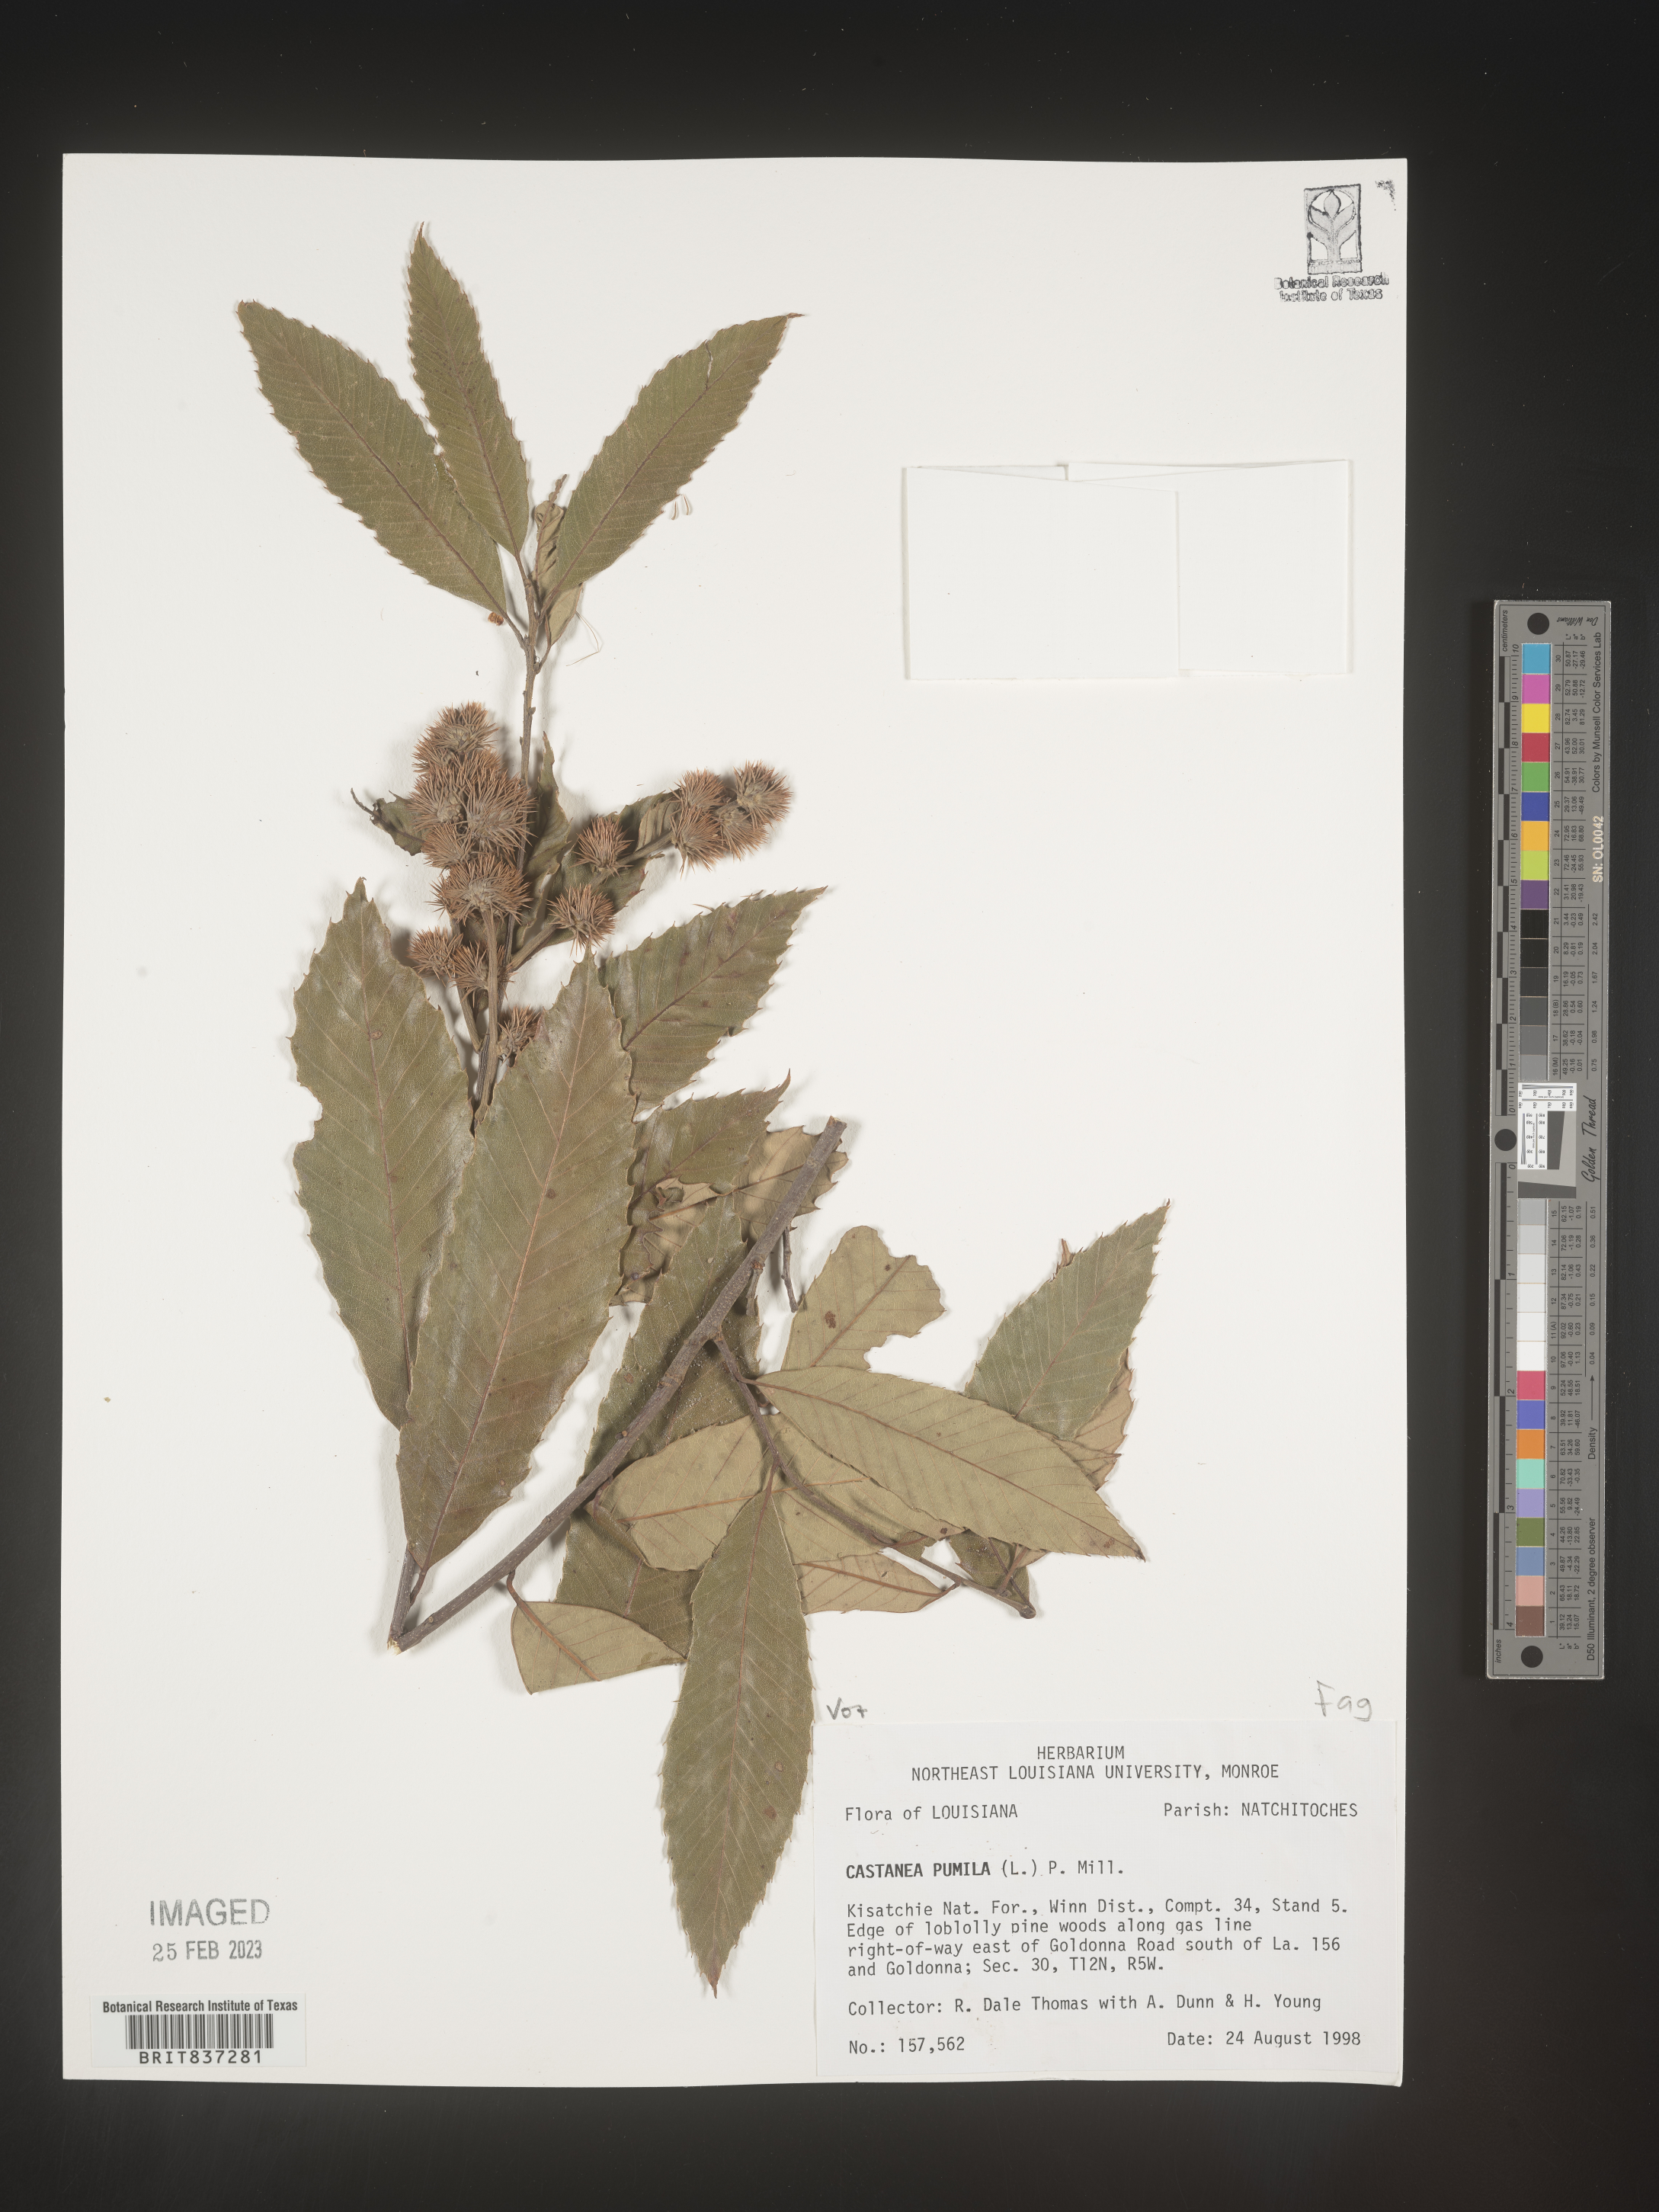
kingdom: Plantae
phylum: Tracheophyta
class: Magnoliopsida
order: Fagales
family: Fagaceae
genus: Castanea
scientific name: Castanea pumila
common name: Chinkapin
